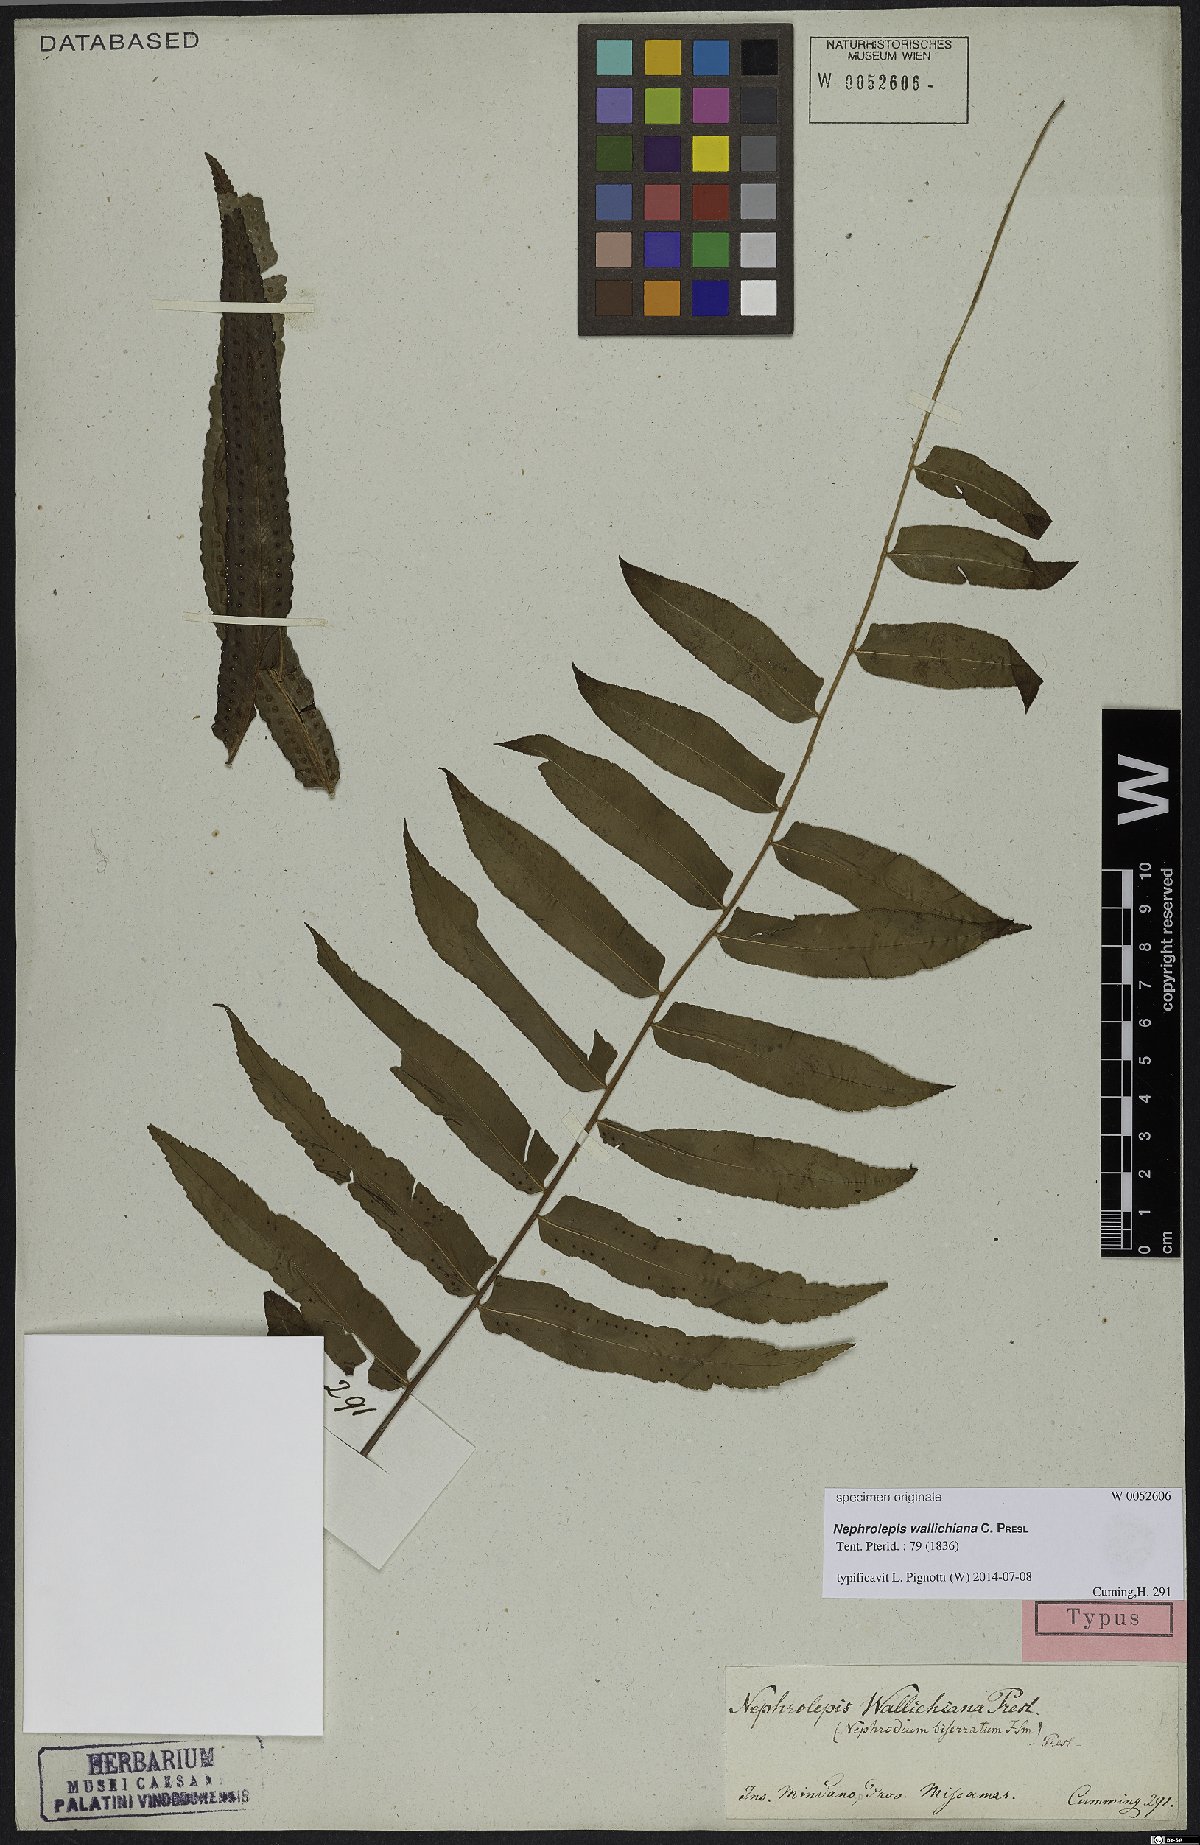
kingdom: Plantae
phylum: Tracheophyta
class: Polypodiopsida
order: Polypodiales
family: Nephrolepidaceae
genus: Nephrolepis
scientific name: Nephrolepis hirsutula
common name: Asian sword fern
